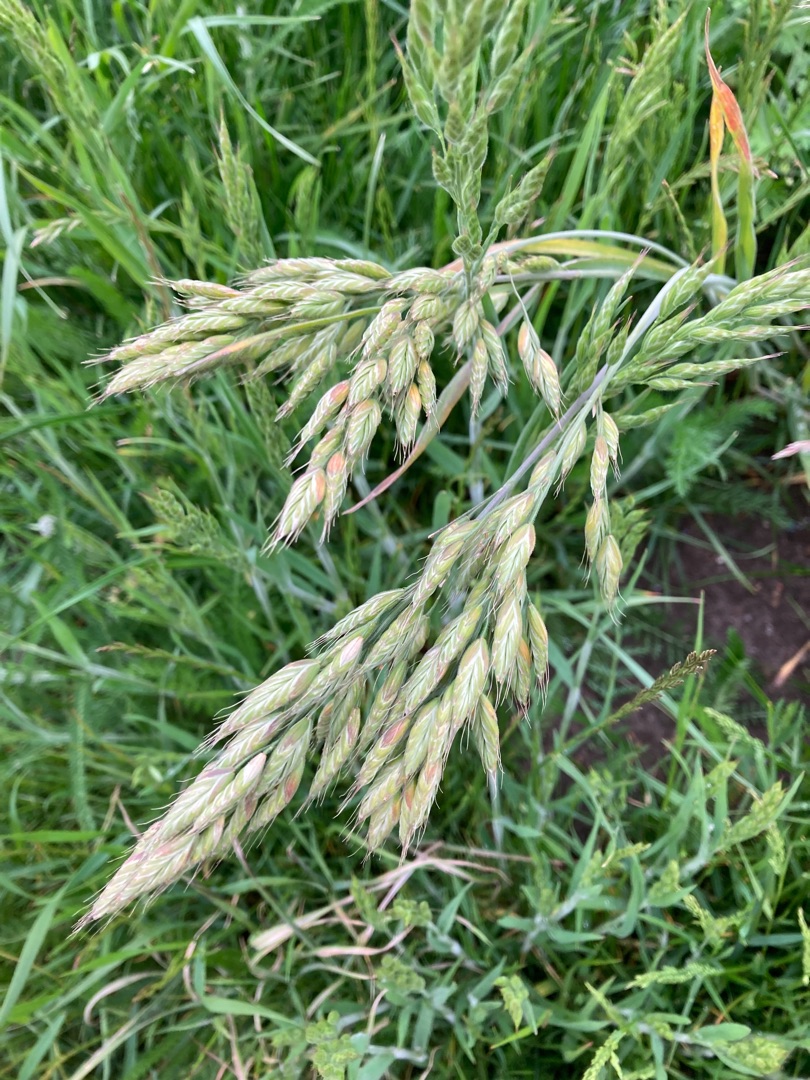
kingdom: Plantae
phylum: Tracheophyta
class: Liliopsida
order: Poales
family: Poaceae
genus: Bromus
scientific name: Bromus hordeaceus
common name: Blød hejre
